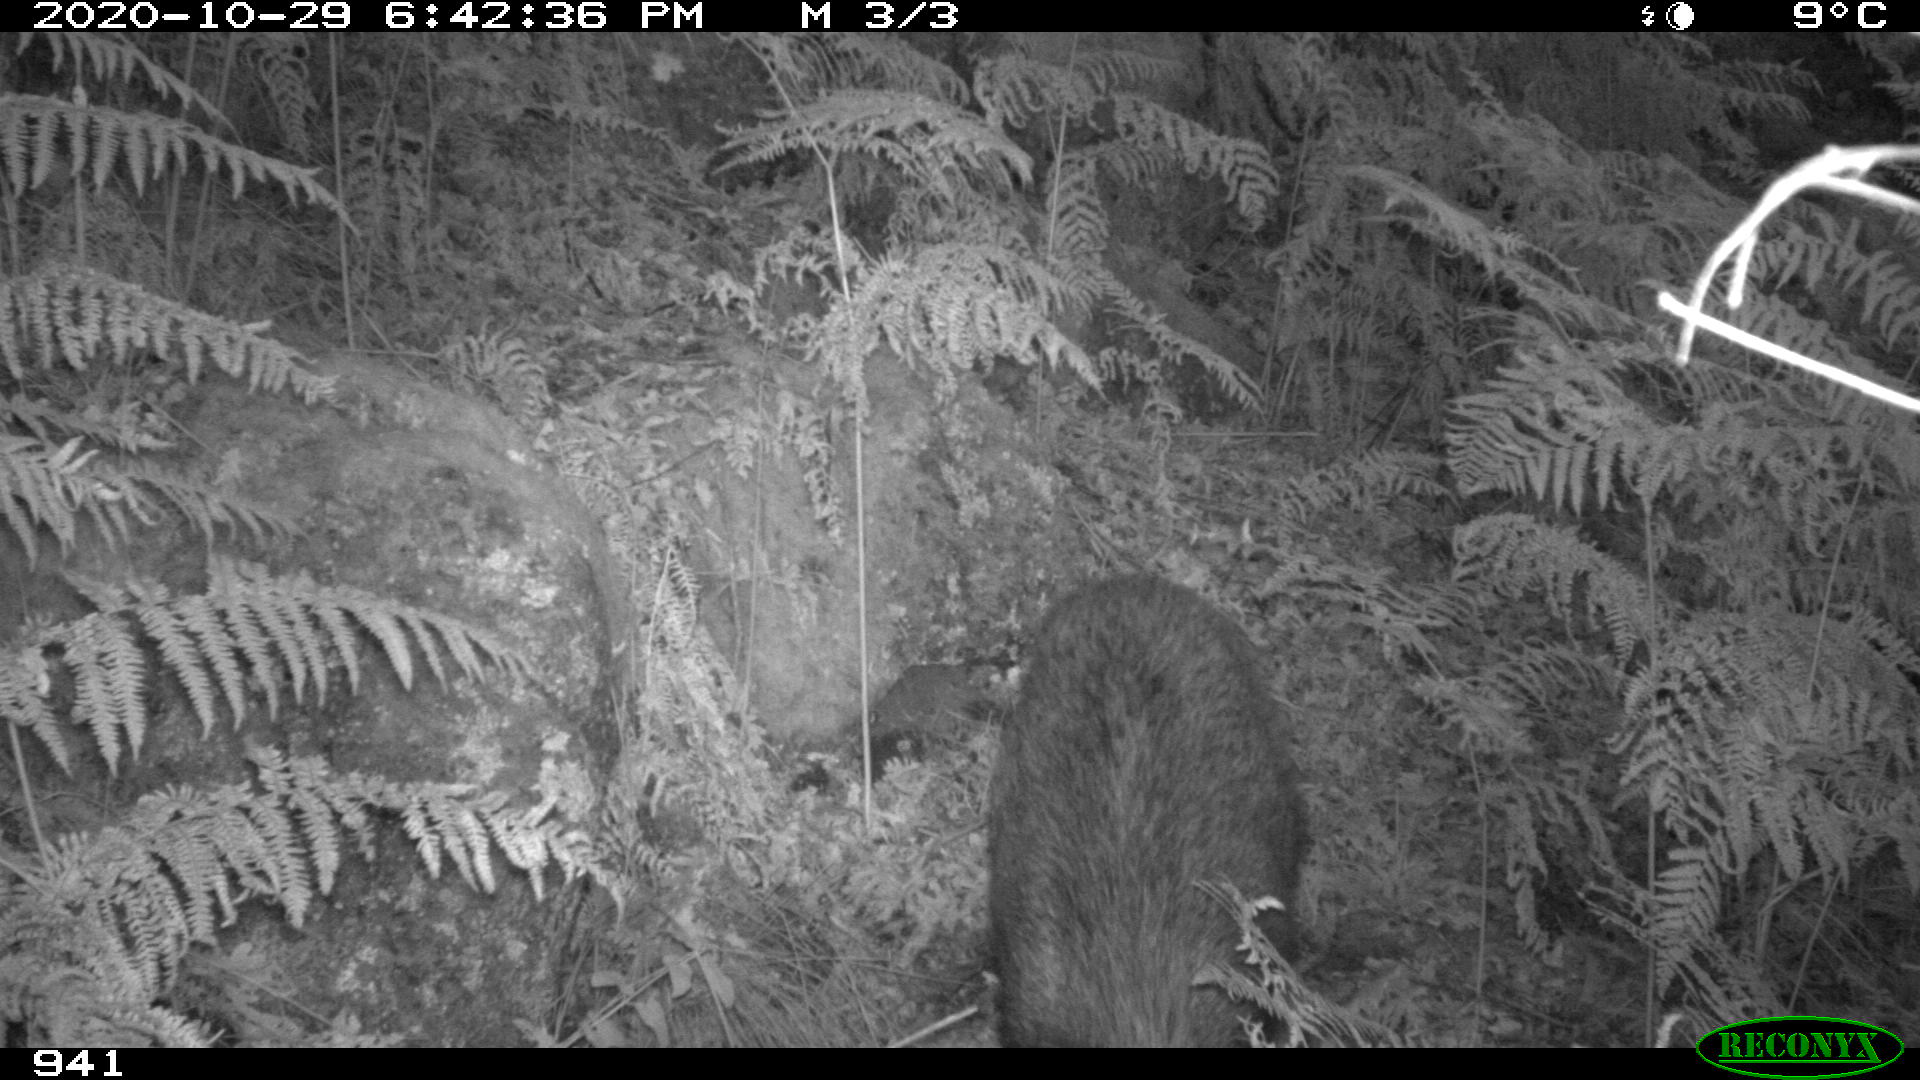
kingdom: Animalia
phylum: Chordata
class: Mammalia
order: Artiodactyla
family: Suidae
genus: Sus
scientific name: Sus scrofa
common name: Wild boar
